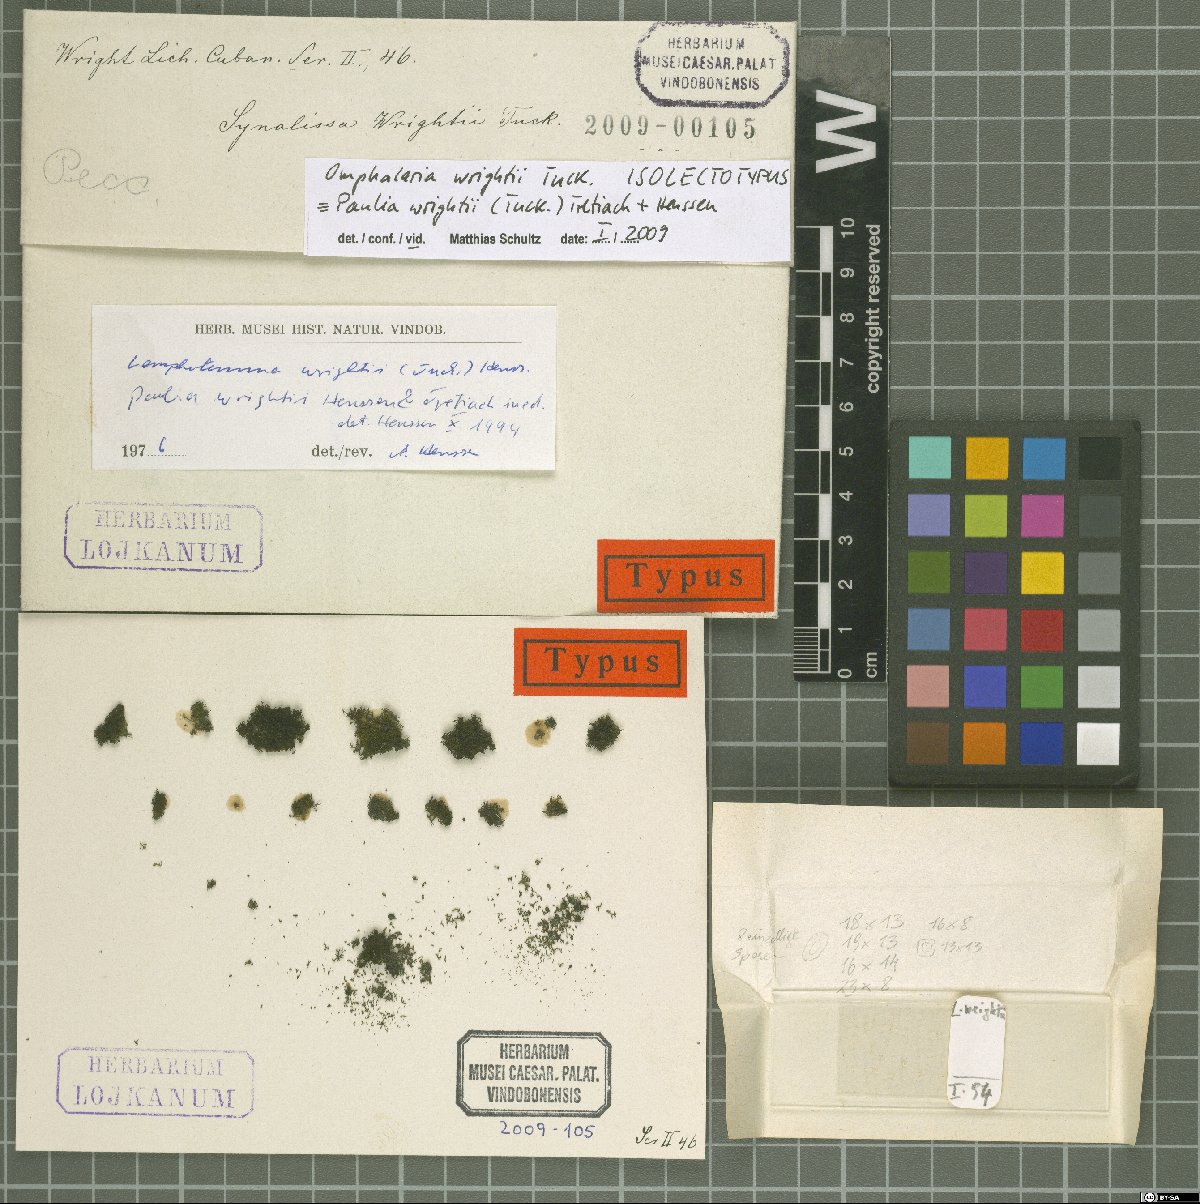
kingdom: Fungi
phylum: Ascomycota
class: Lichinomycetes
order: Lichinales
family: Lichinaceae
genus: Paulia
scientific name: Paulia wrightii
